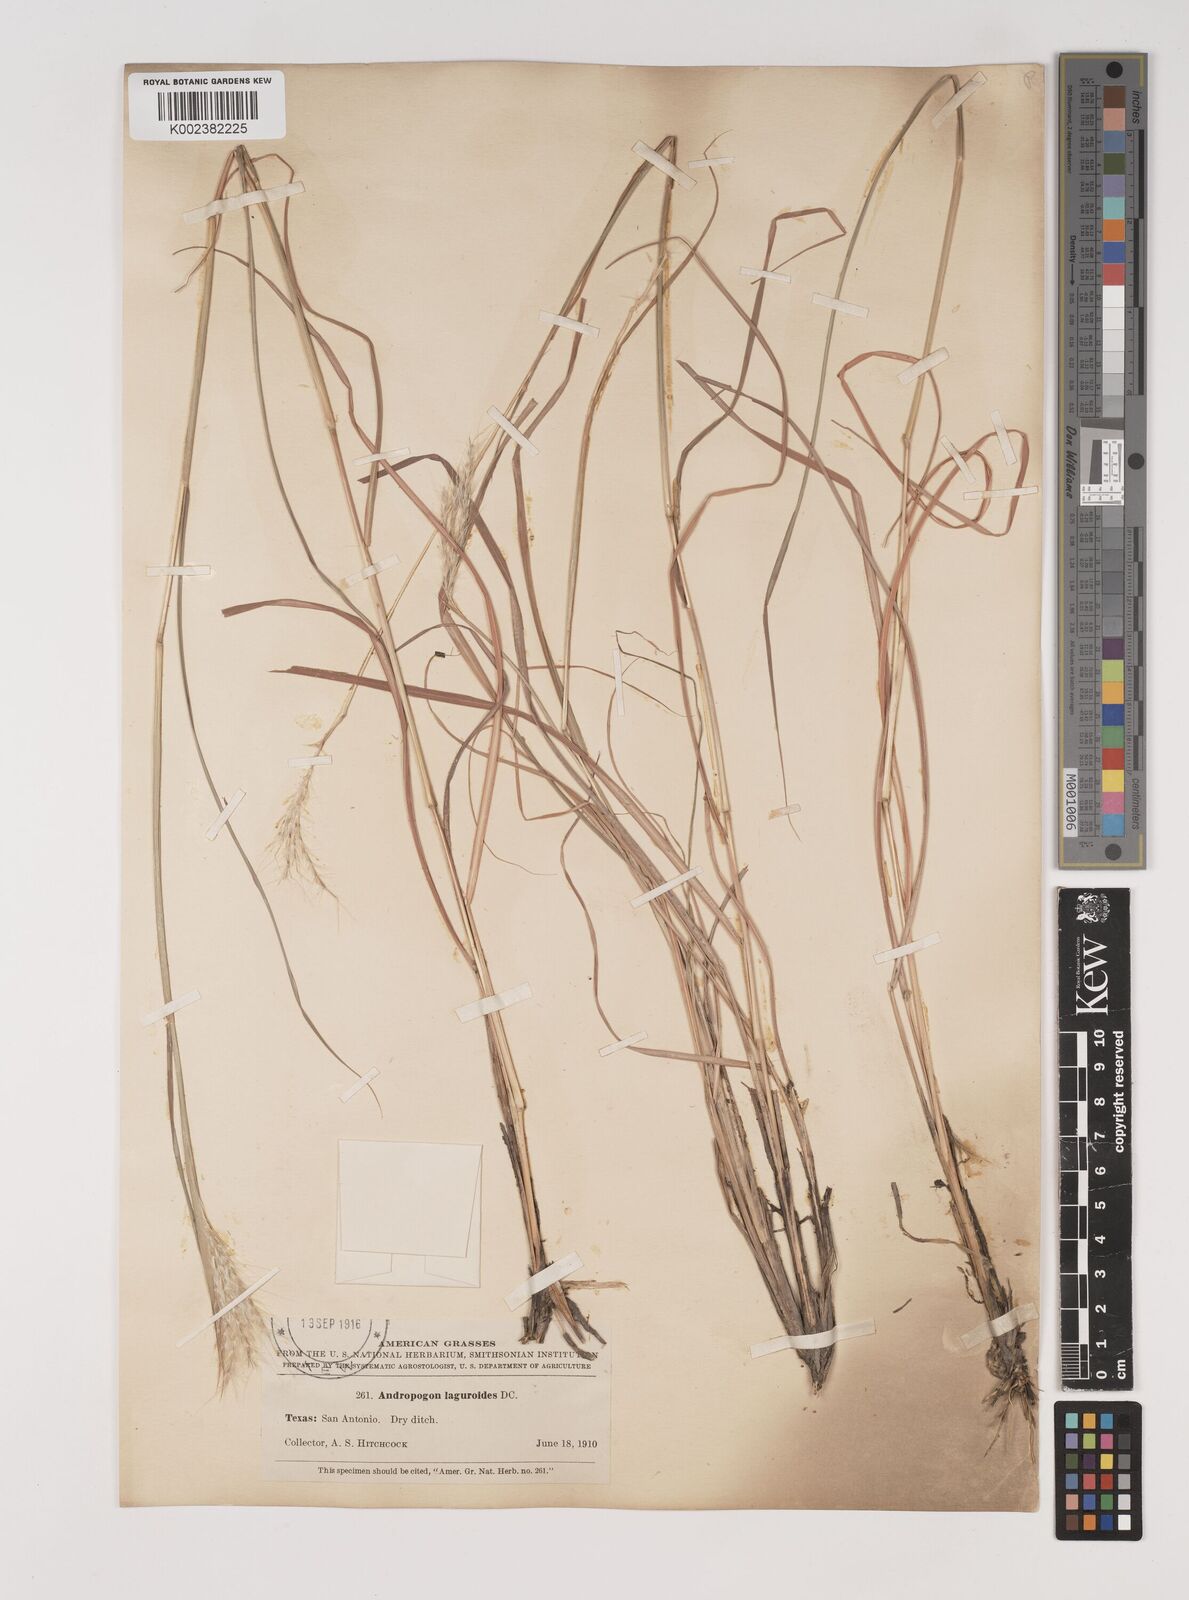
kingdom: Plantae
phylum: Tracheophyta
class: Liliopsida
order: Poales
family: Poaceae
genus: Bothriochloa
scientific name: Bothriochloa springfieldii
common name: Springfield bluestem
